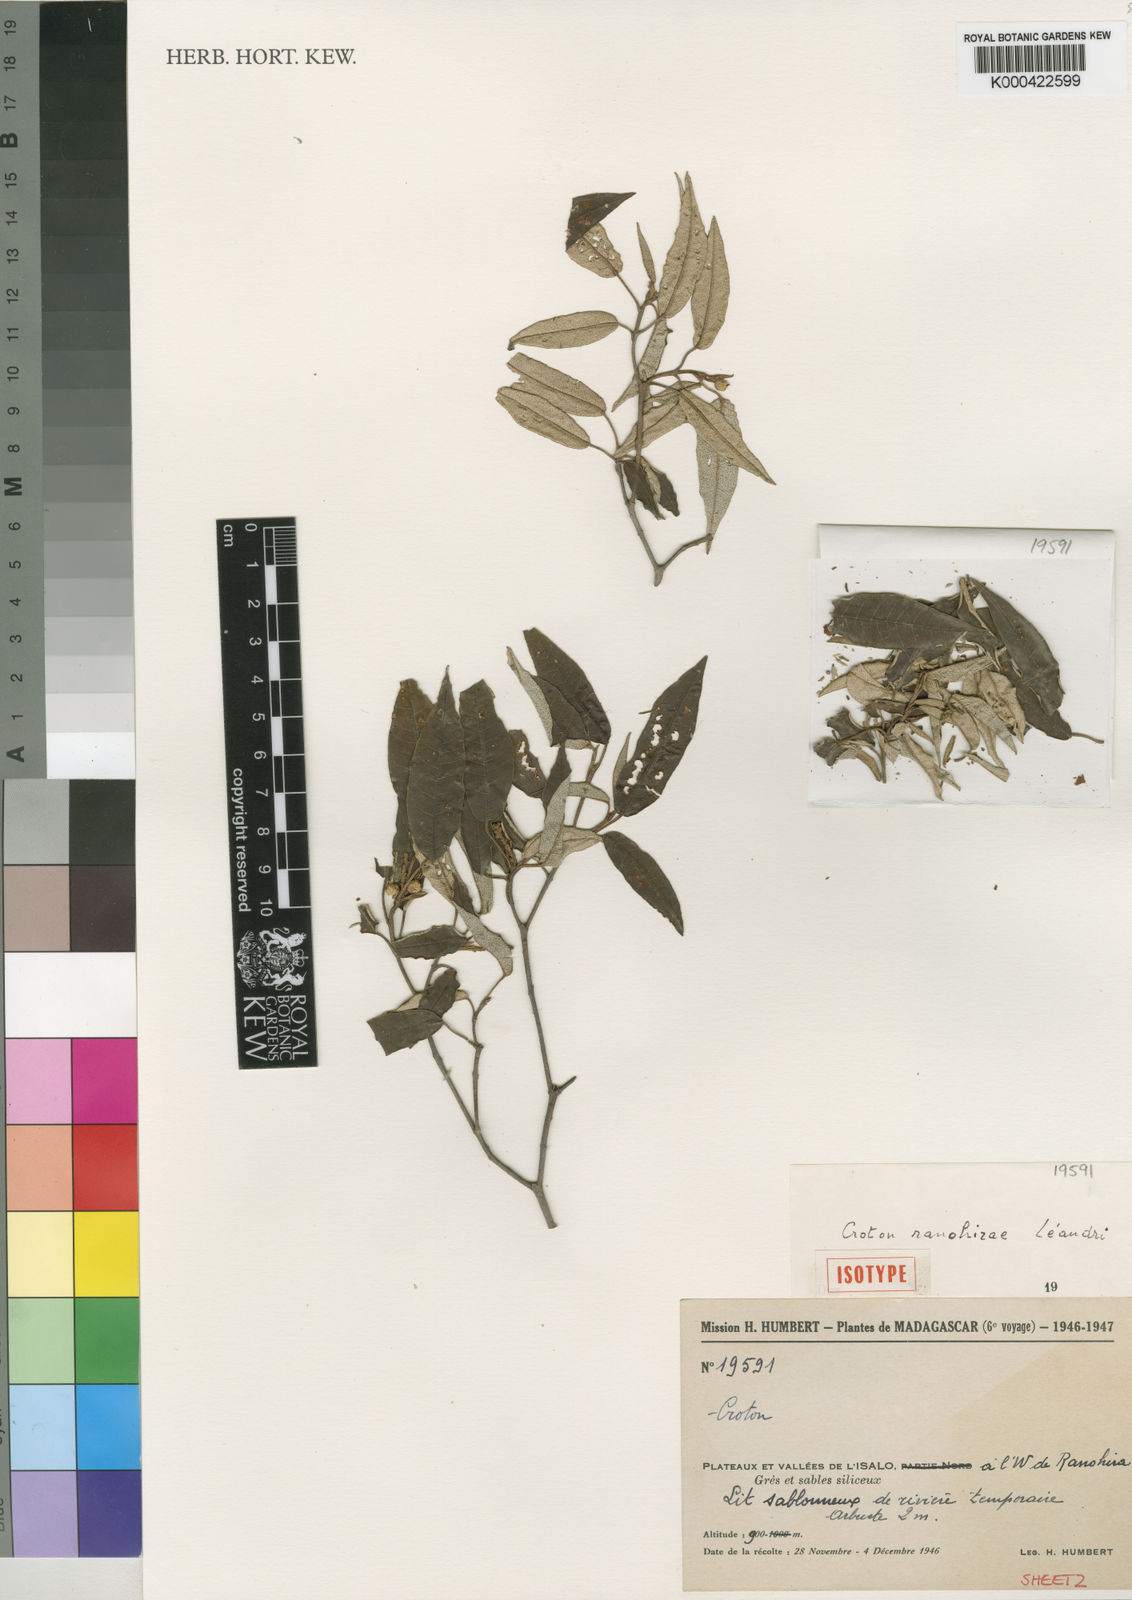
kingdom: Plantae
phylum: Tracheophyta
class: Magnoliopsida
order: Malpighiales
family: Euphorbiaceae
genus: Croton
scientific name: Croton catatii
